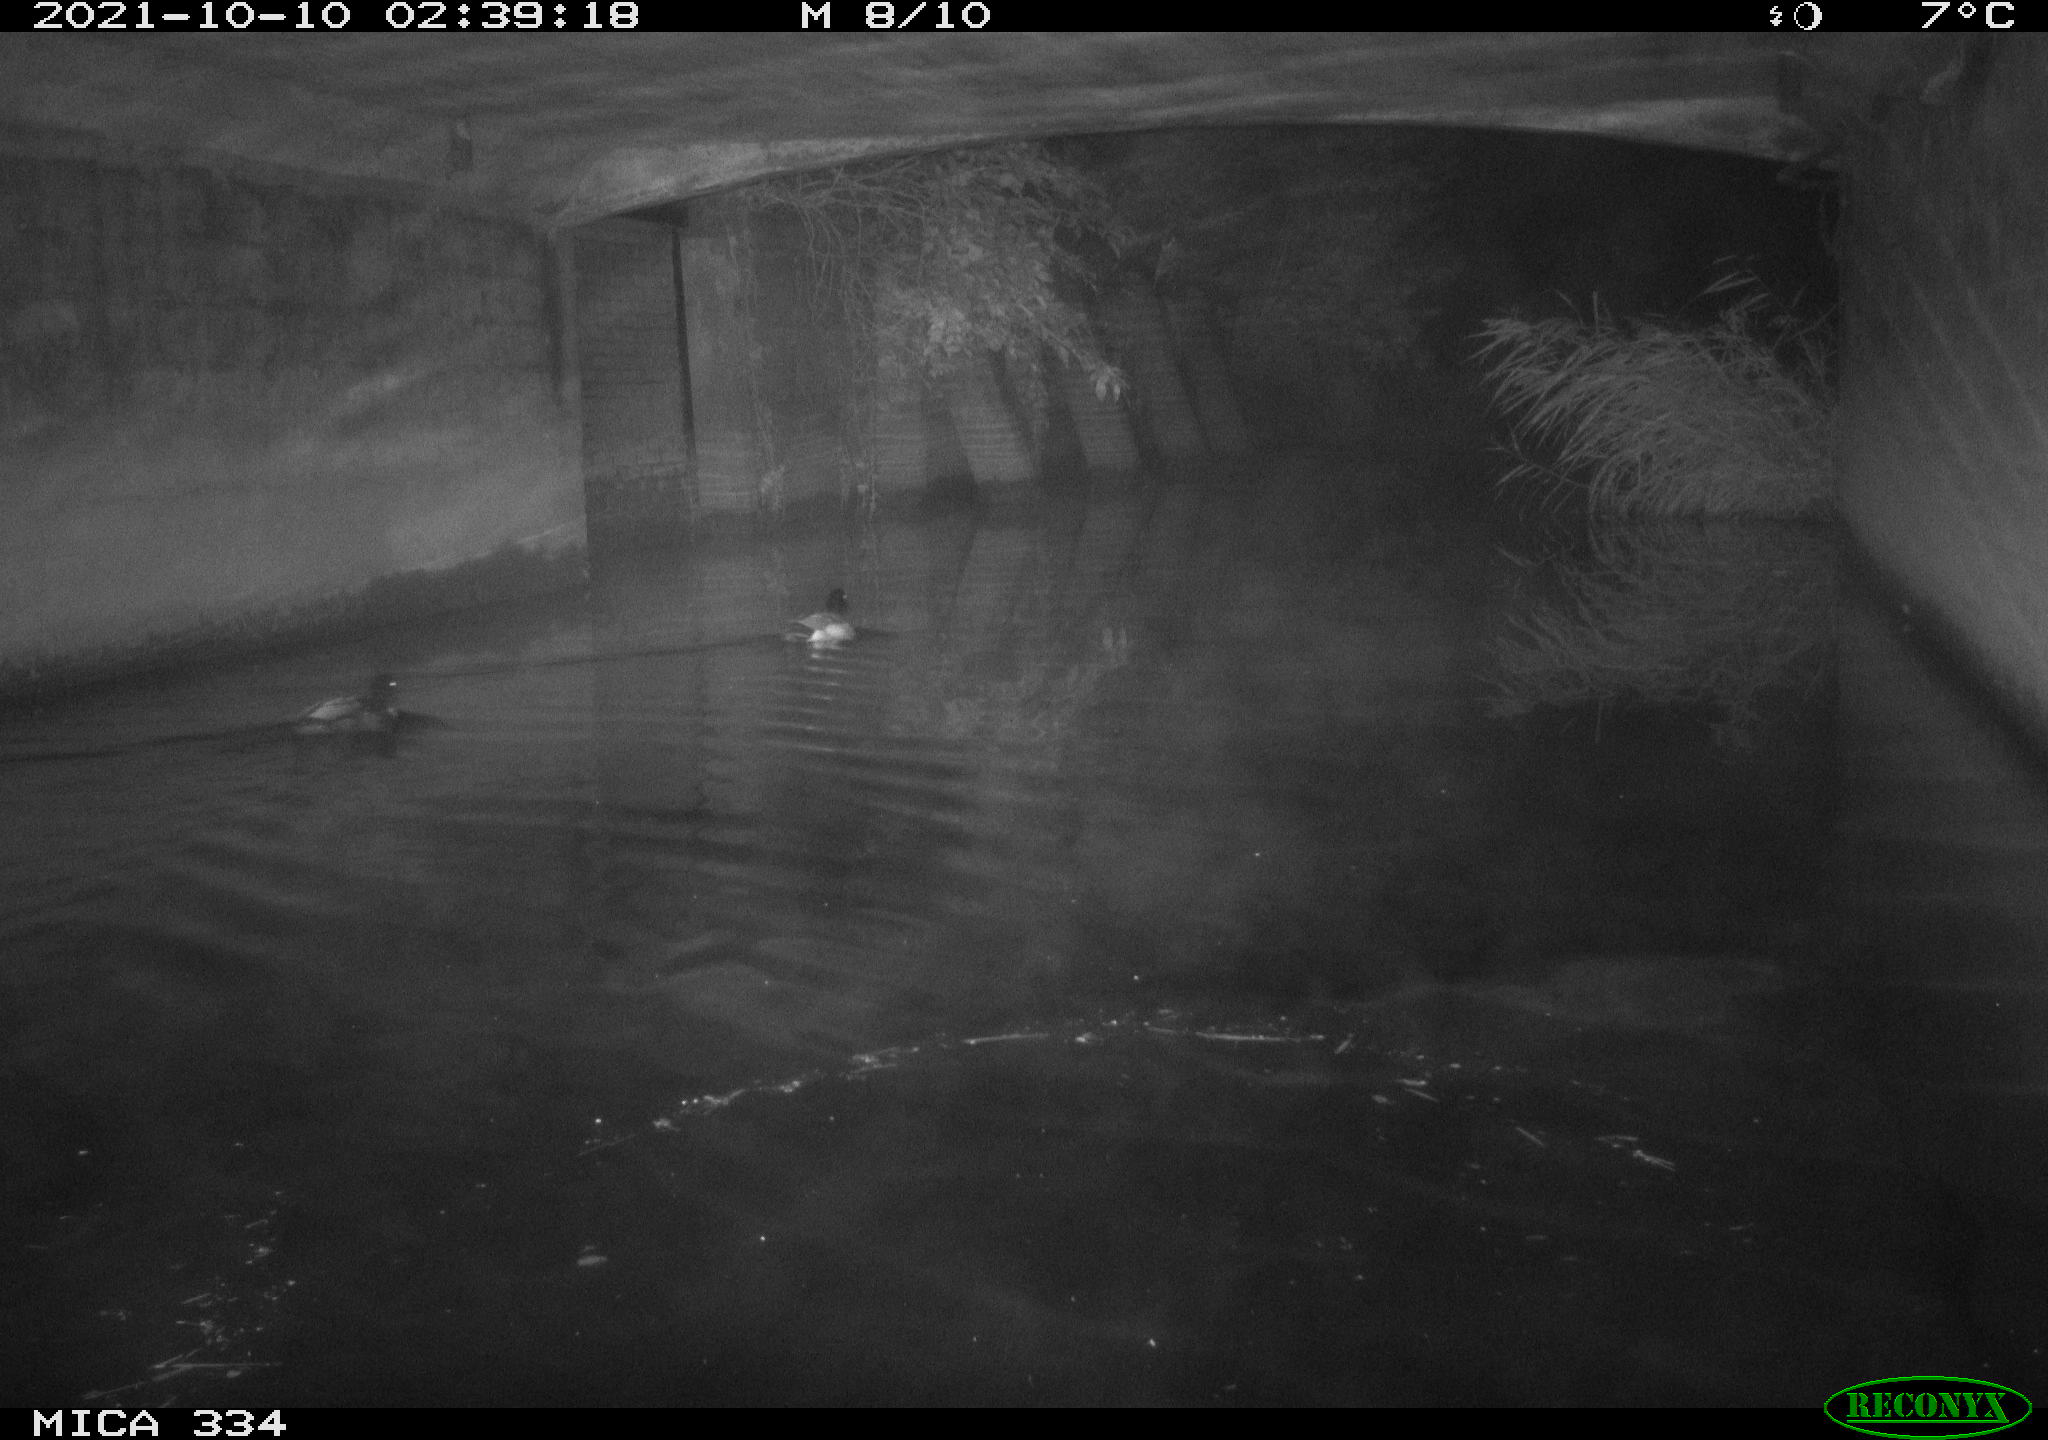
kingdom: Animalia
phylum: Chordata
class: Aves
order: Anseriformes
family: Anatidae
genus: Anas
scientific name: Anas platyrhynchos
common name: Mallard
